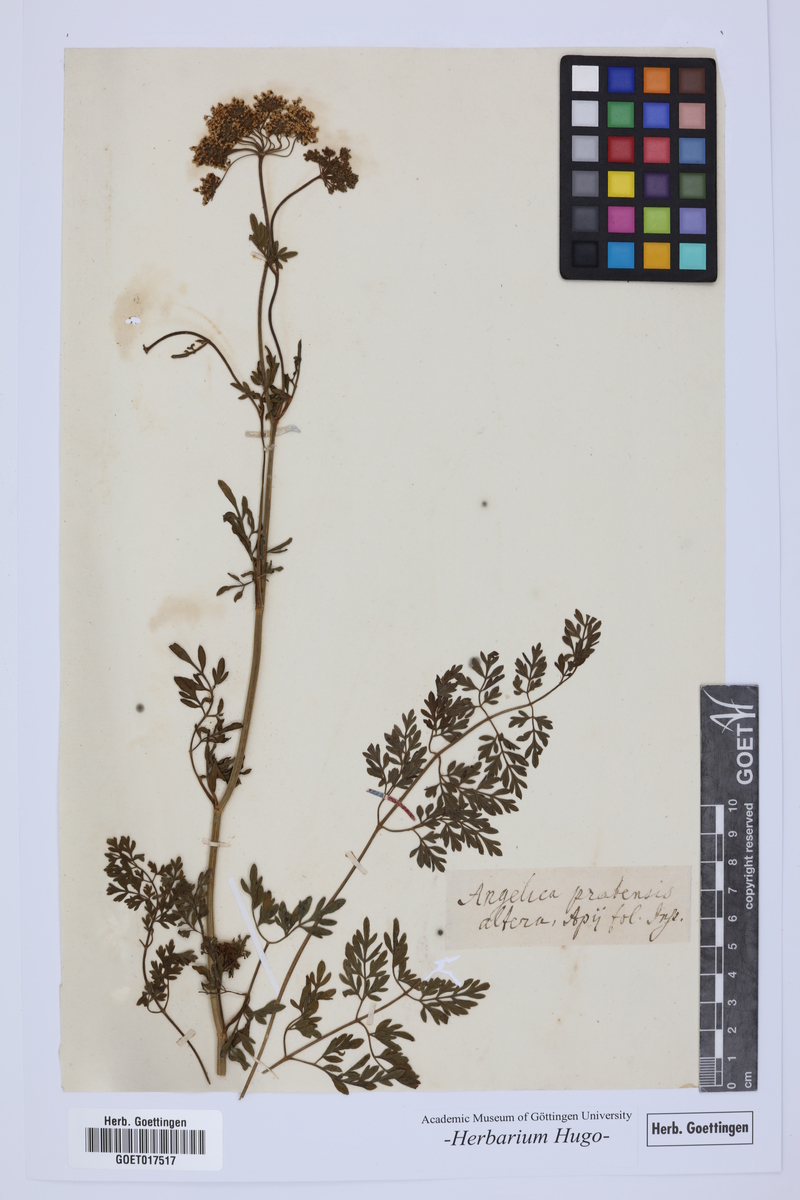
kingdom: Plantae
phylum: Tracheophyta
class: Magnoliopsida
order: Apiales
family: Apiaceae
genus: Angelica
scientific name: Angelica
